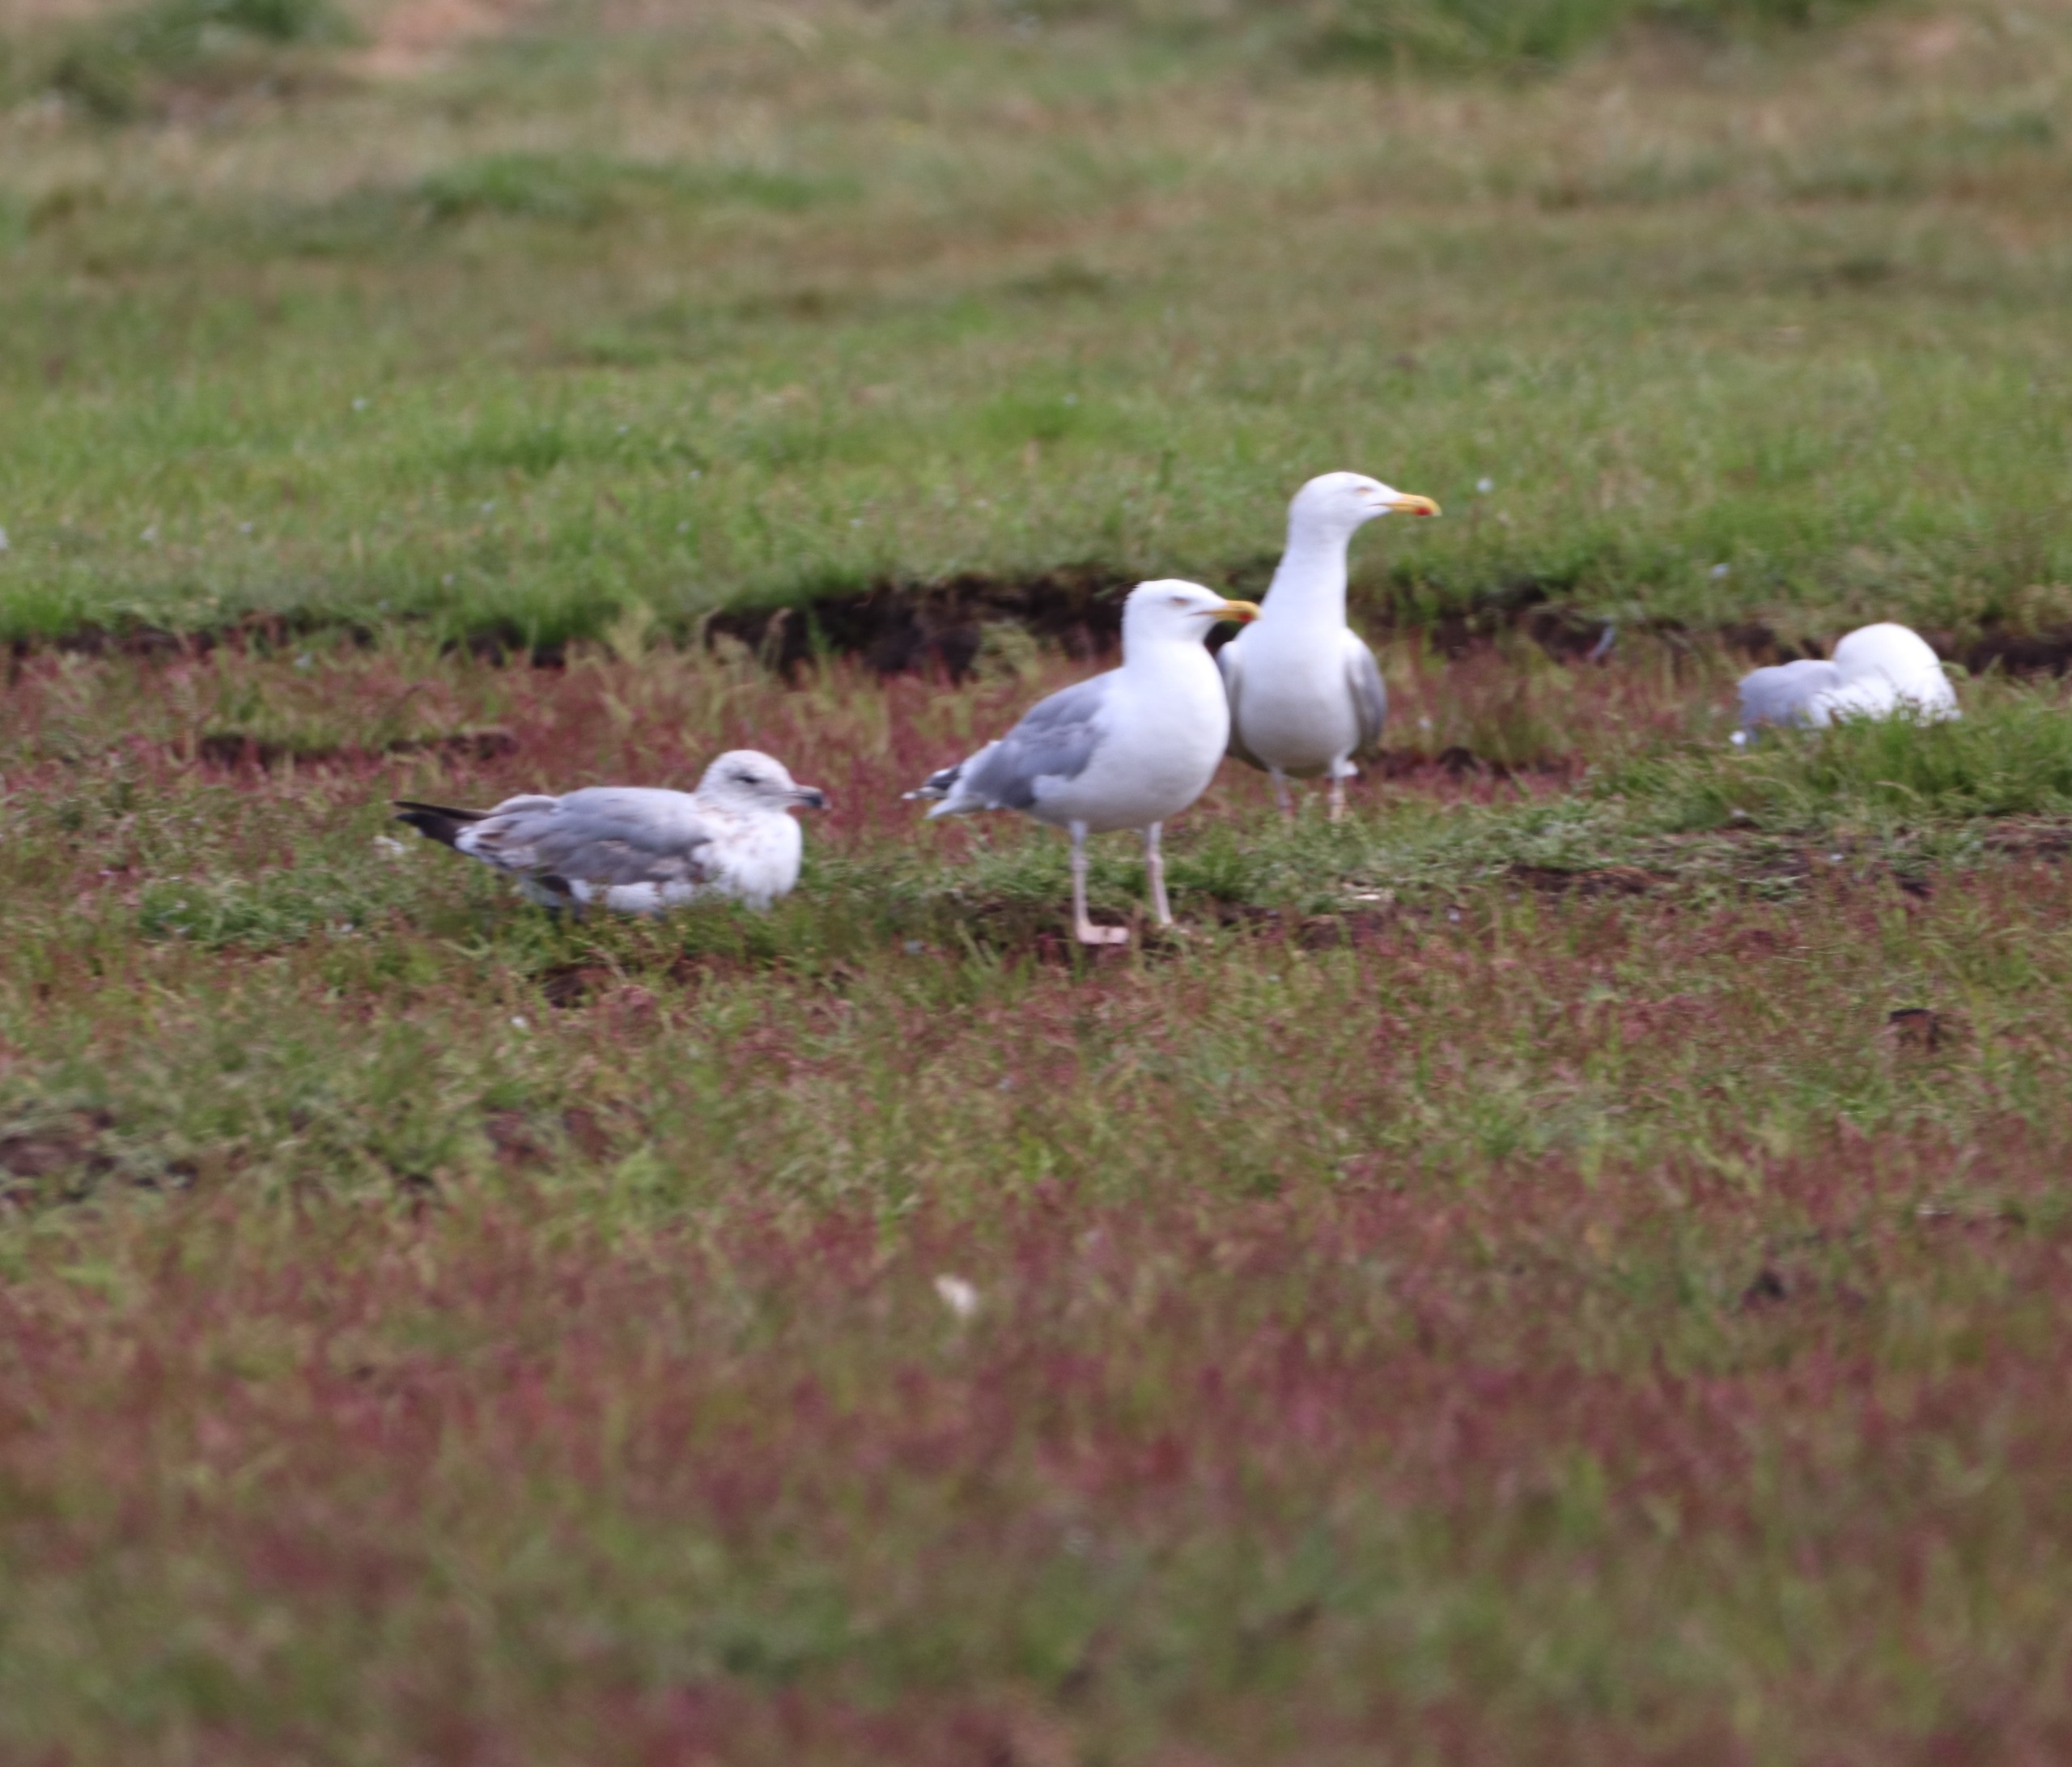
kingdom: Animalia
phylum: Chordata
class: Aves
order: Charadriiformes
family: Laridae
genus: Larus
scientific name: Larus argentatus
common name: Sølvmåge
